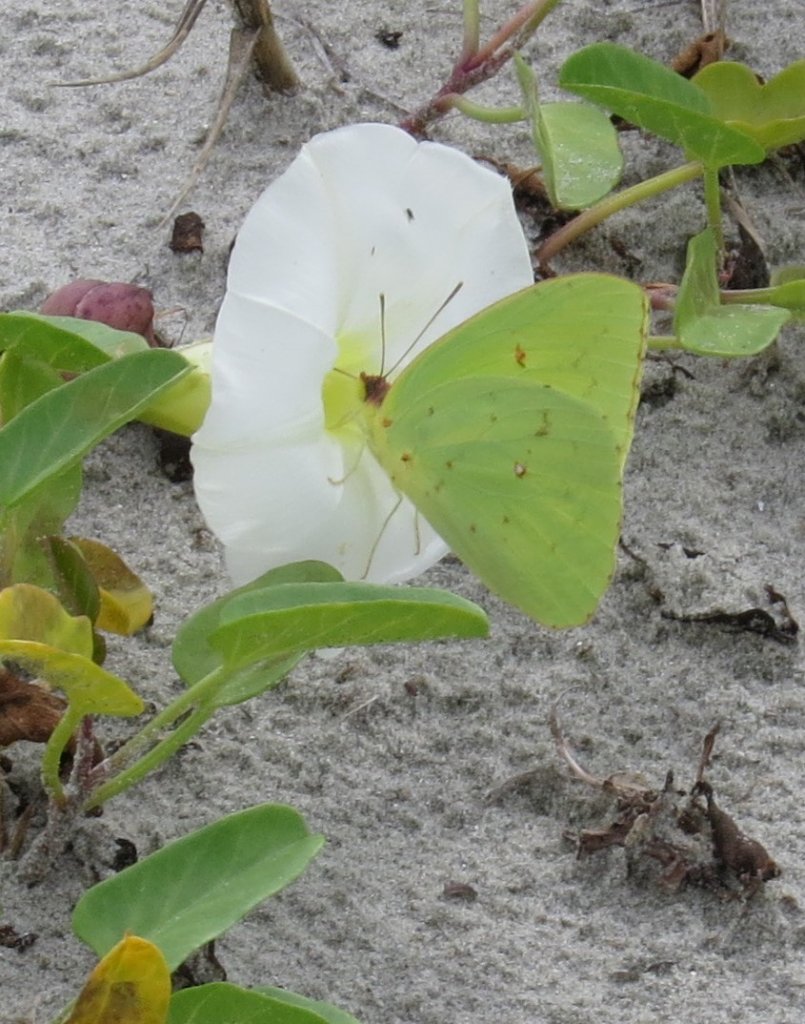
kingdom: Animalia
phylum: Arthropoda
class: Insecta
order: Lepidoptera
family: Pieridae
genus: Phoebis
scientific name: Phoebis sennae
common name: Cloudless Sulphur
